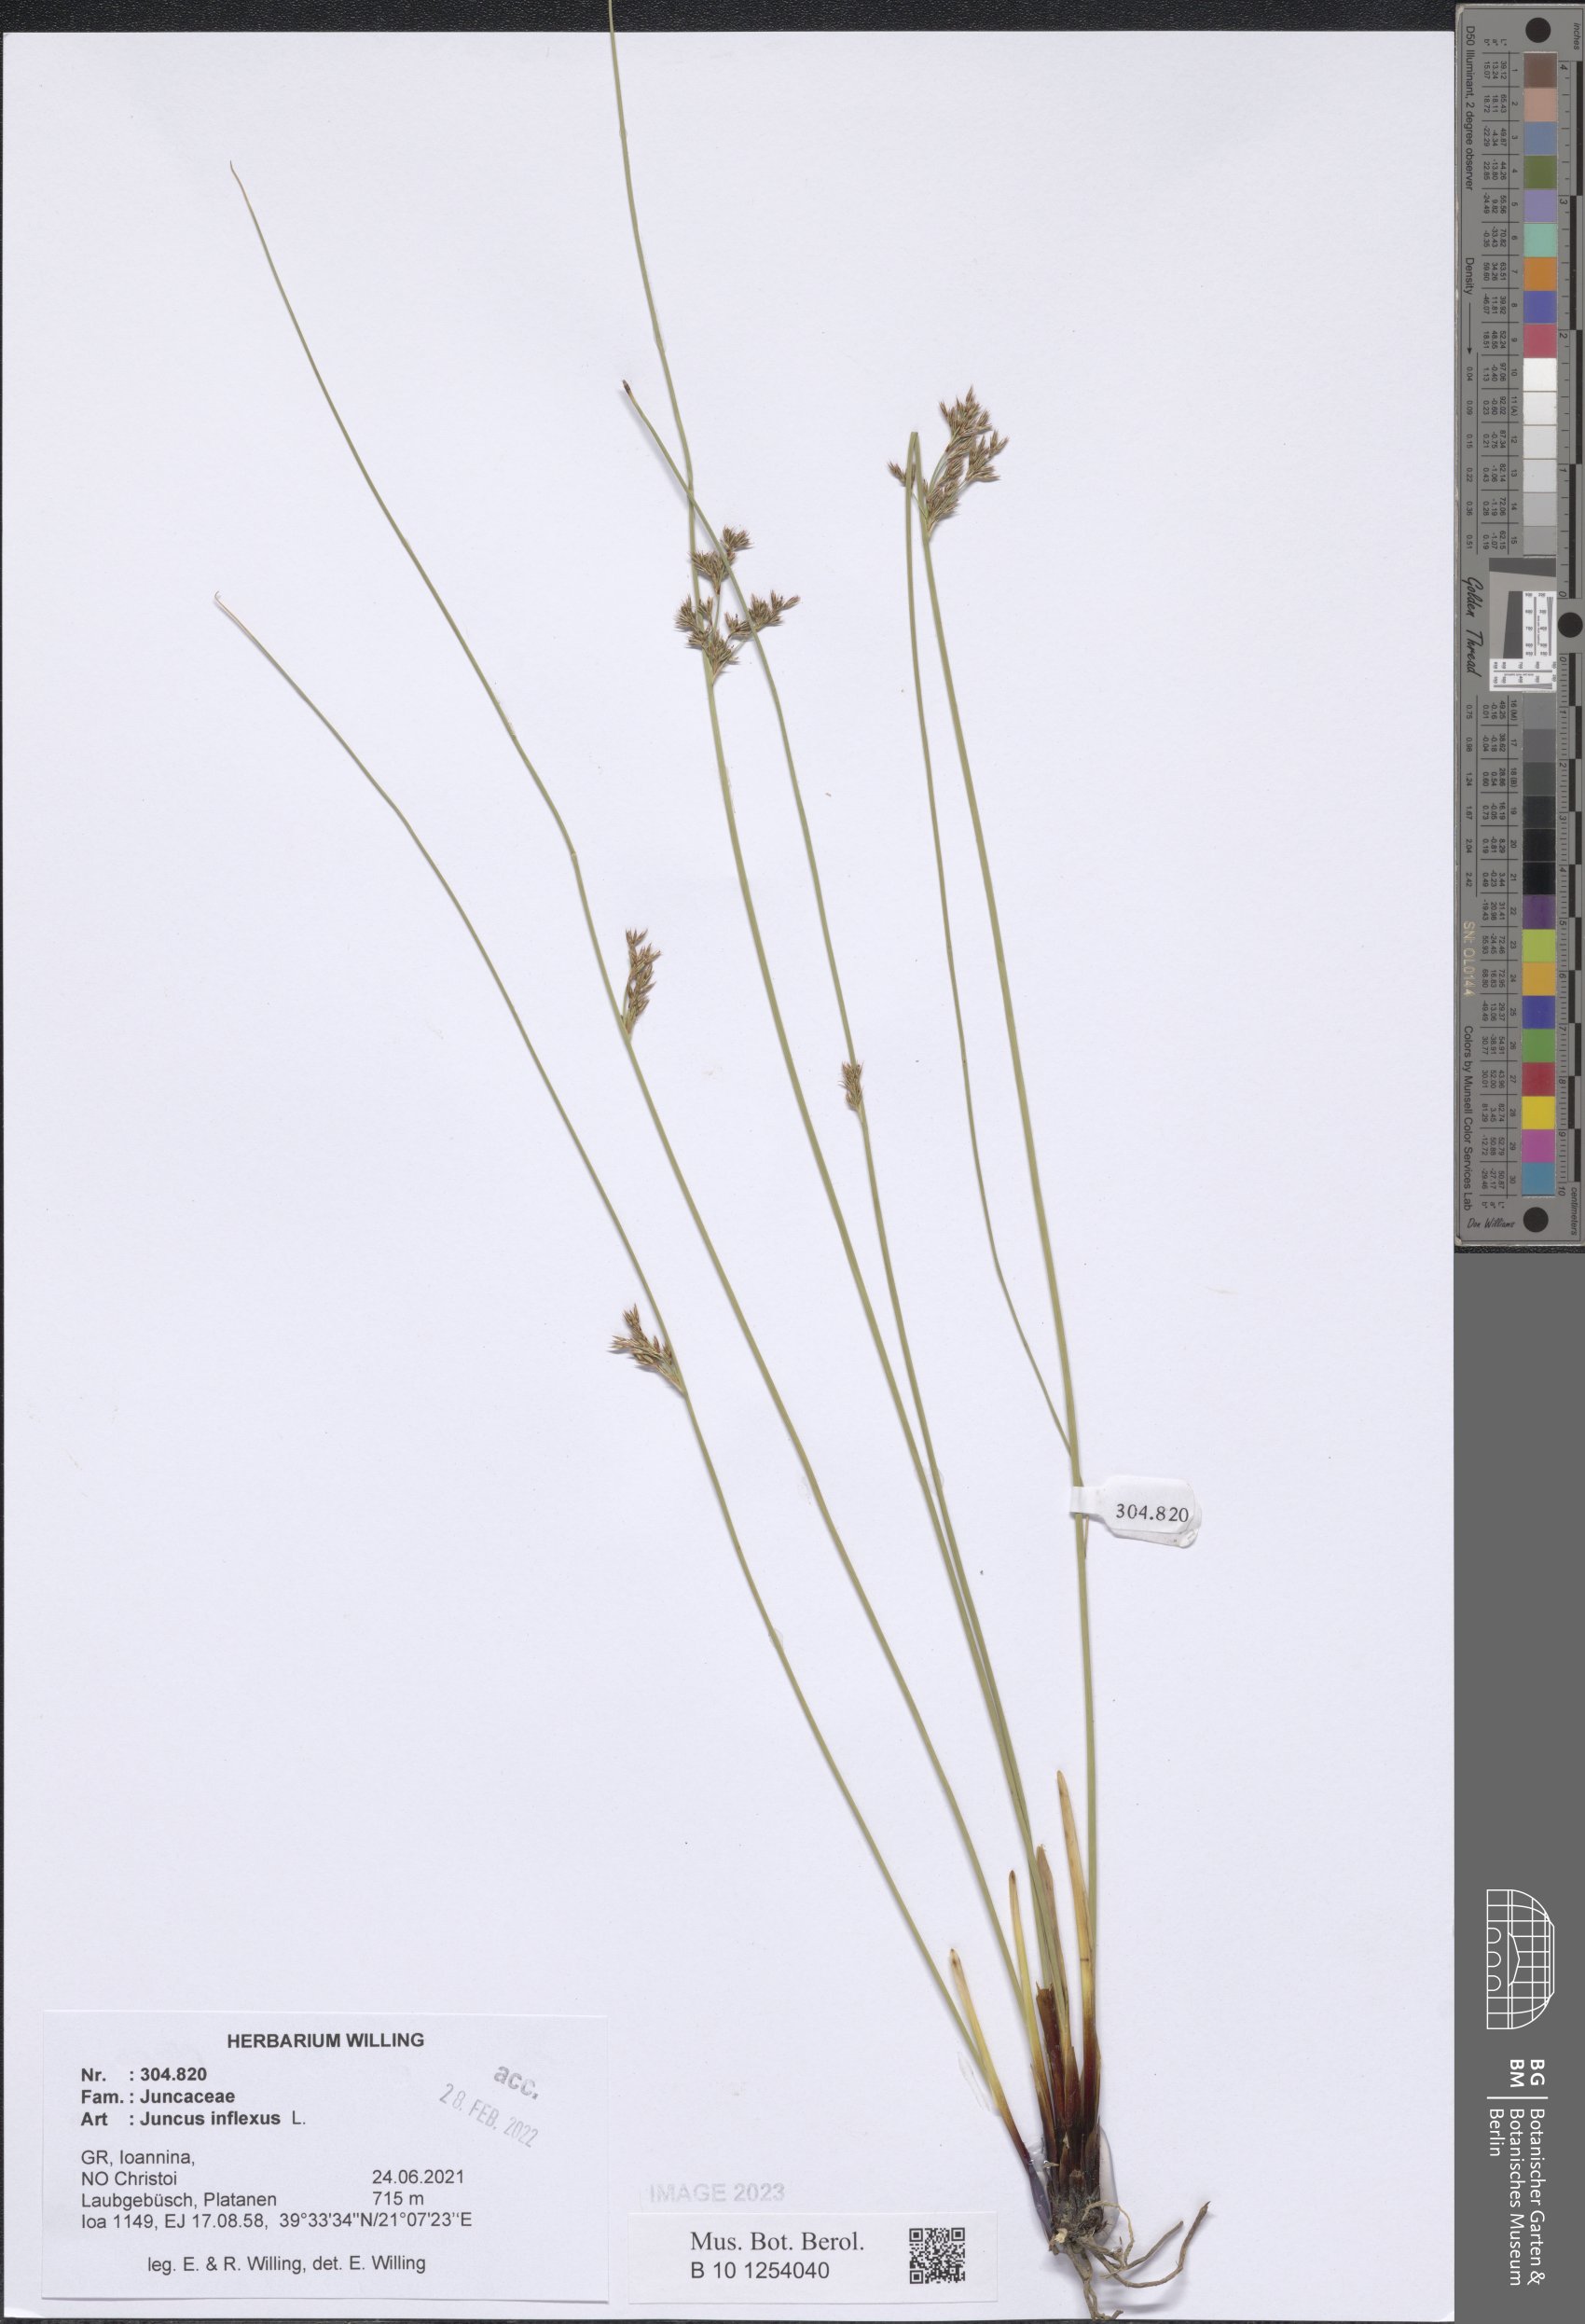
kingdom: Plantae
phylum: Tracheophyta
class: Liliopsida
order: Poales
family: Juncaceae
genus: Juncus
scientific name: Juncus inflexus
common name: Hard rush
